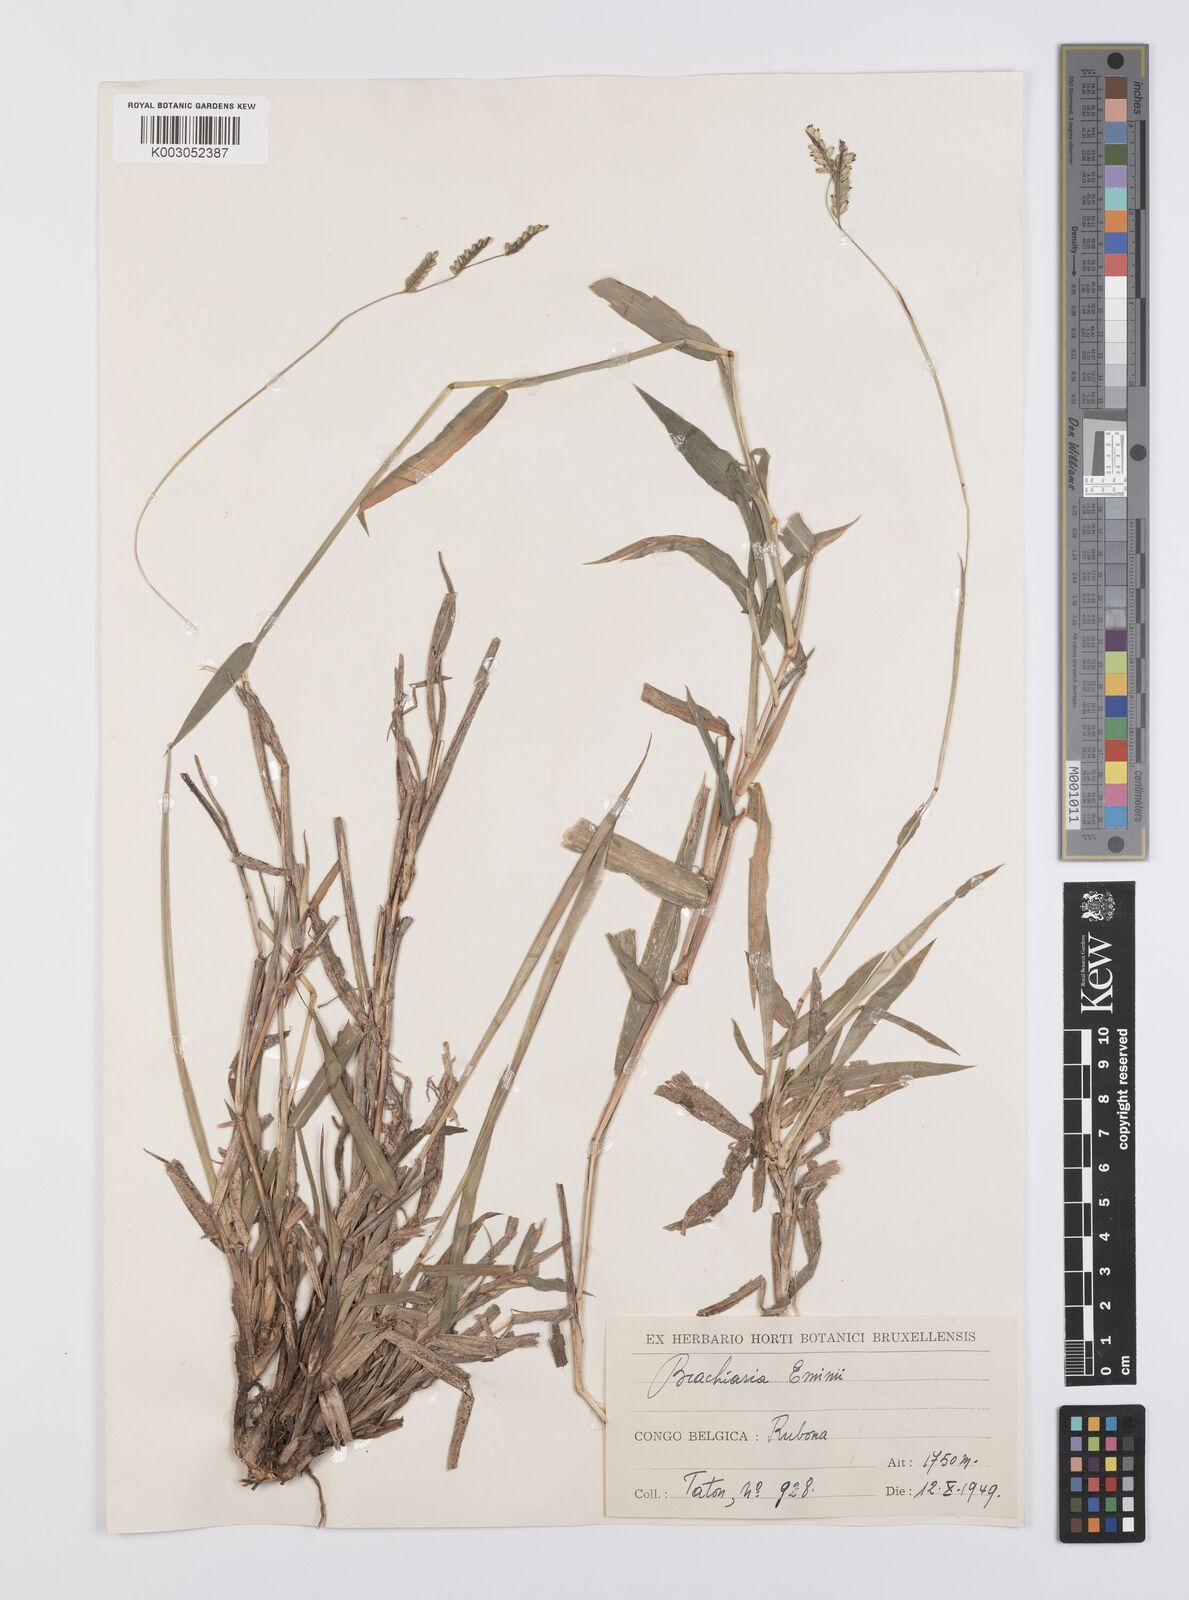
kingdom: Plantae
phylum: Tracheophyta
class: Liliopsida
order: Poales
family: Poaceae
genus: Urochloa
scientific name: Urochloa eminii
